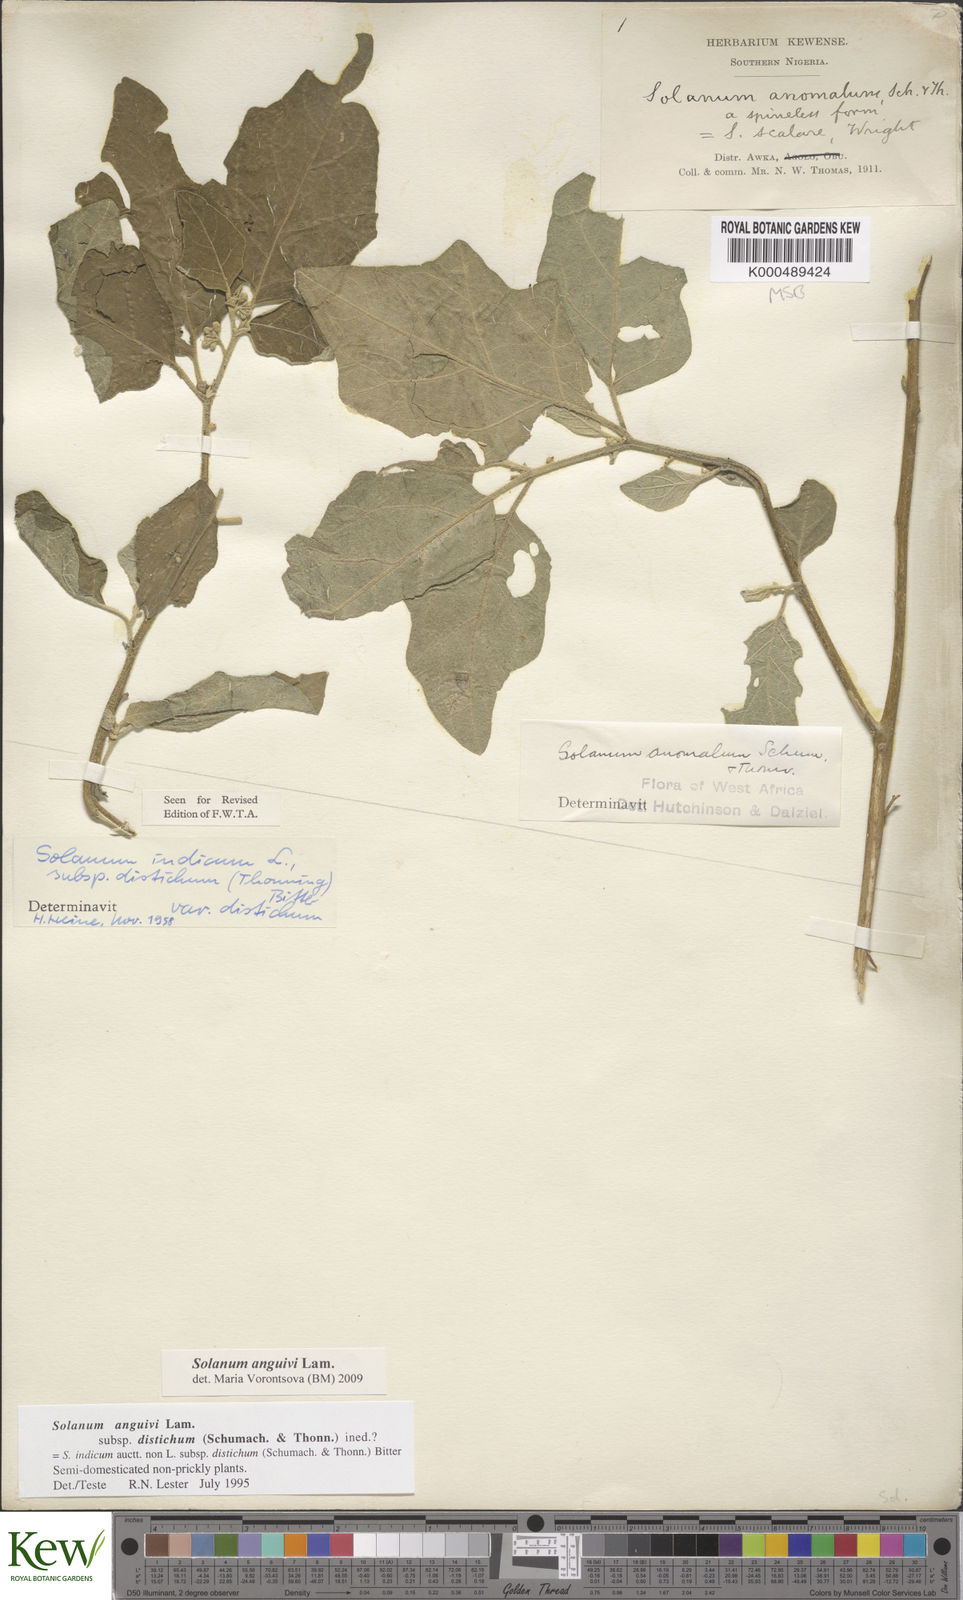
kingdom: Plantae
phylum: Tracheophyta
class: Magnoliopsida
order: Solanales
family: Solanaceae
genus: Solanum
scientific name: Solanum anguivi
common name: Forest bitterberry
